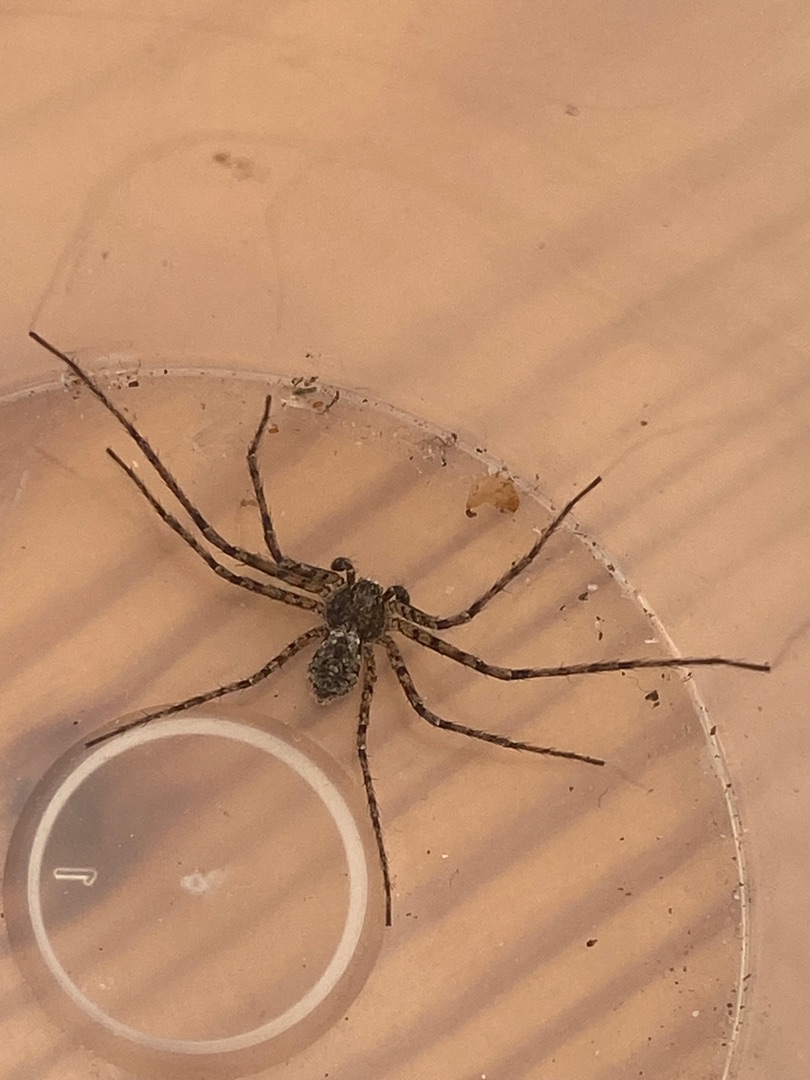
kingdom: Animalia
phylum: Arthropoda
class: Arachnida
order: Araneae
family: Philodromidae
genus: Philodromus
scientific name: Philodromus margaritatus
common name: Dødningehoved-edderkop
